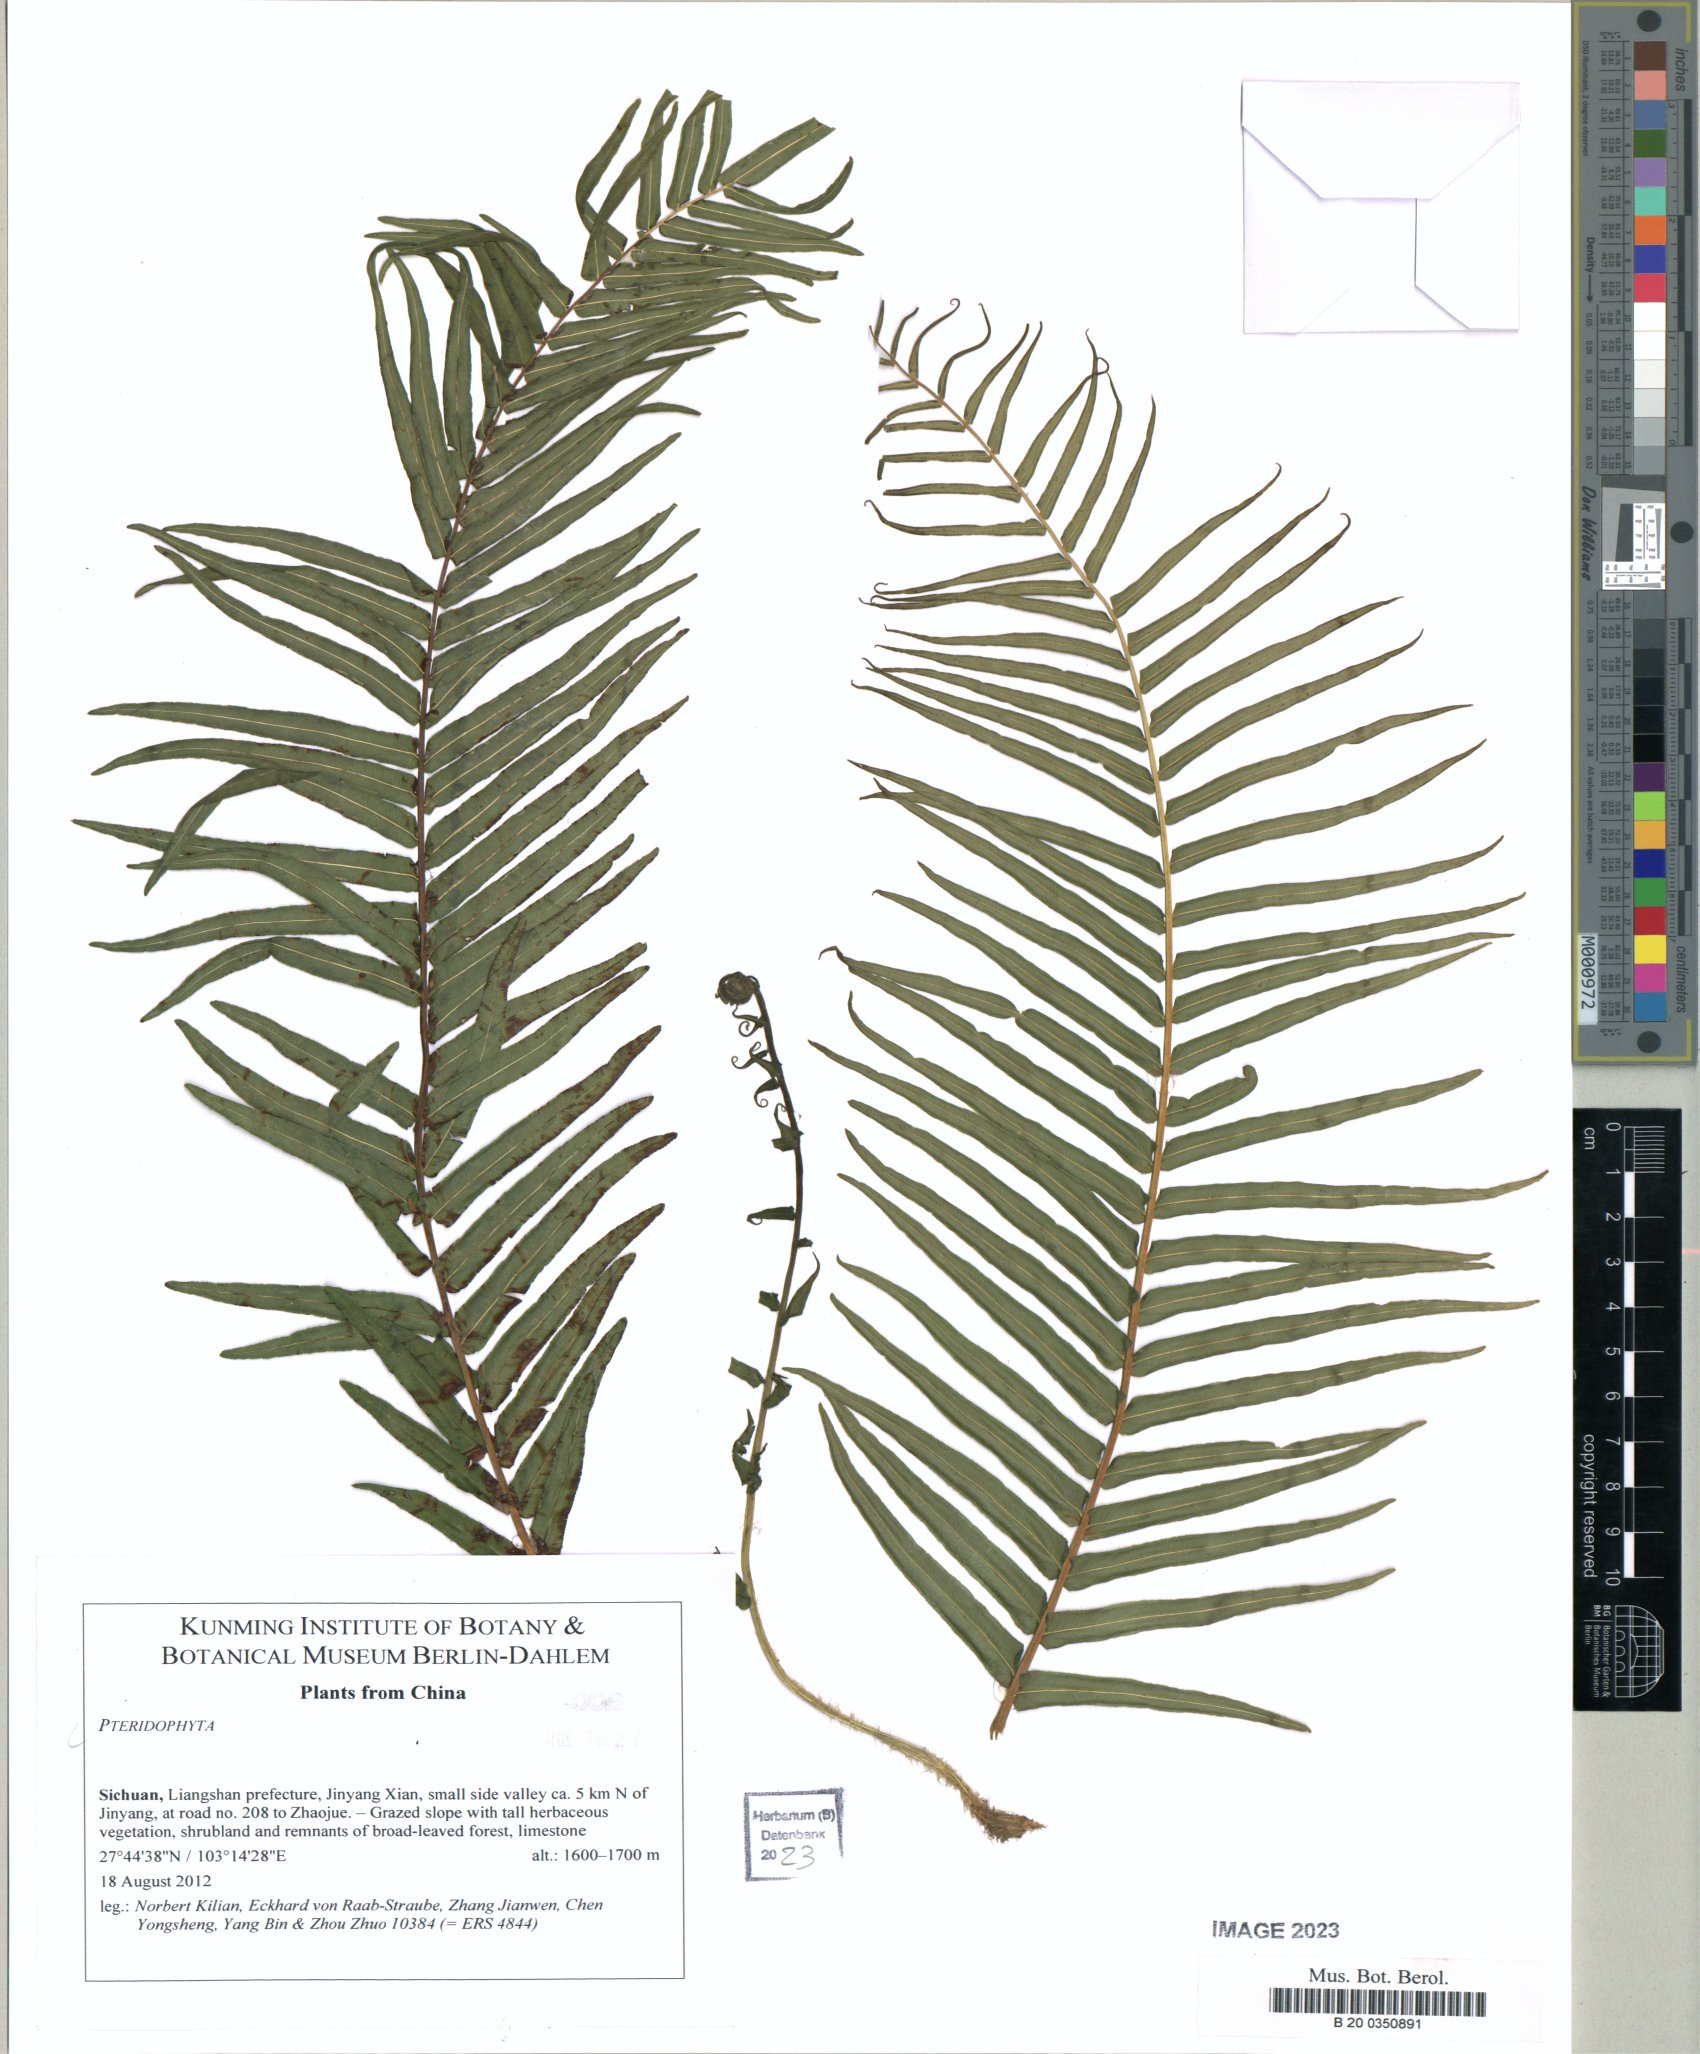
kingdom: Plantae
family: Pteridophyta
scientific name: Pteridophyta
